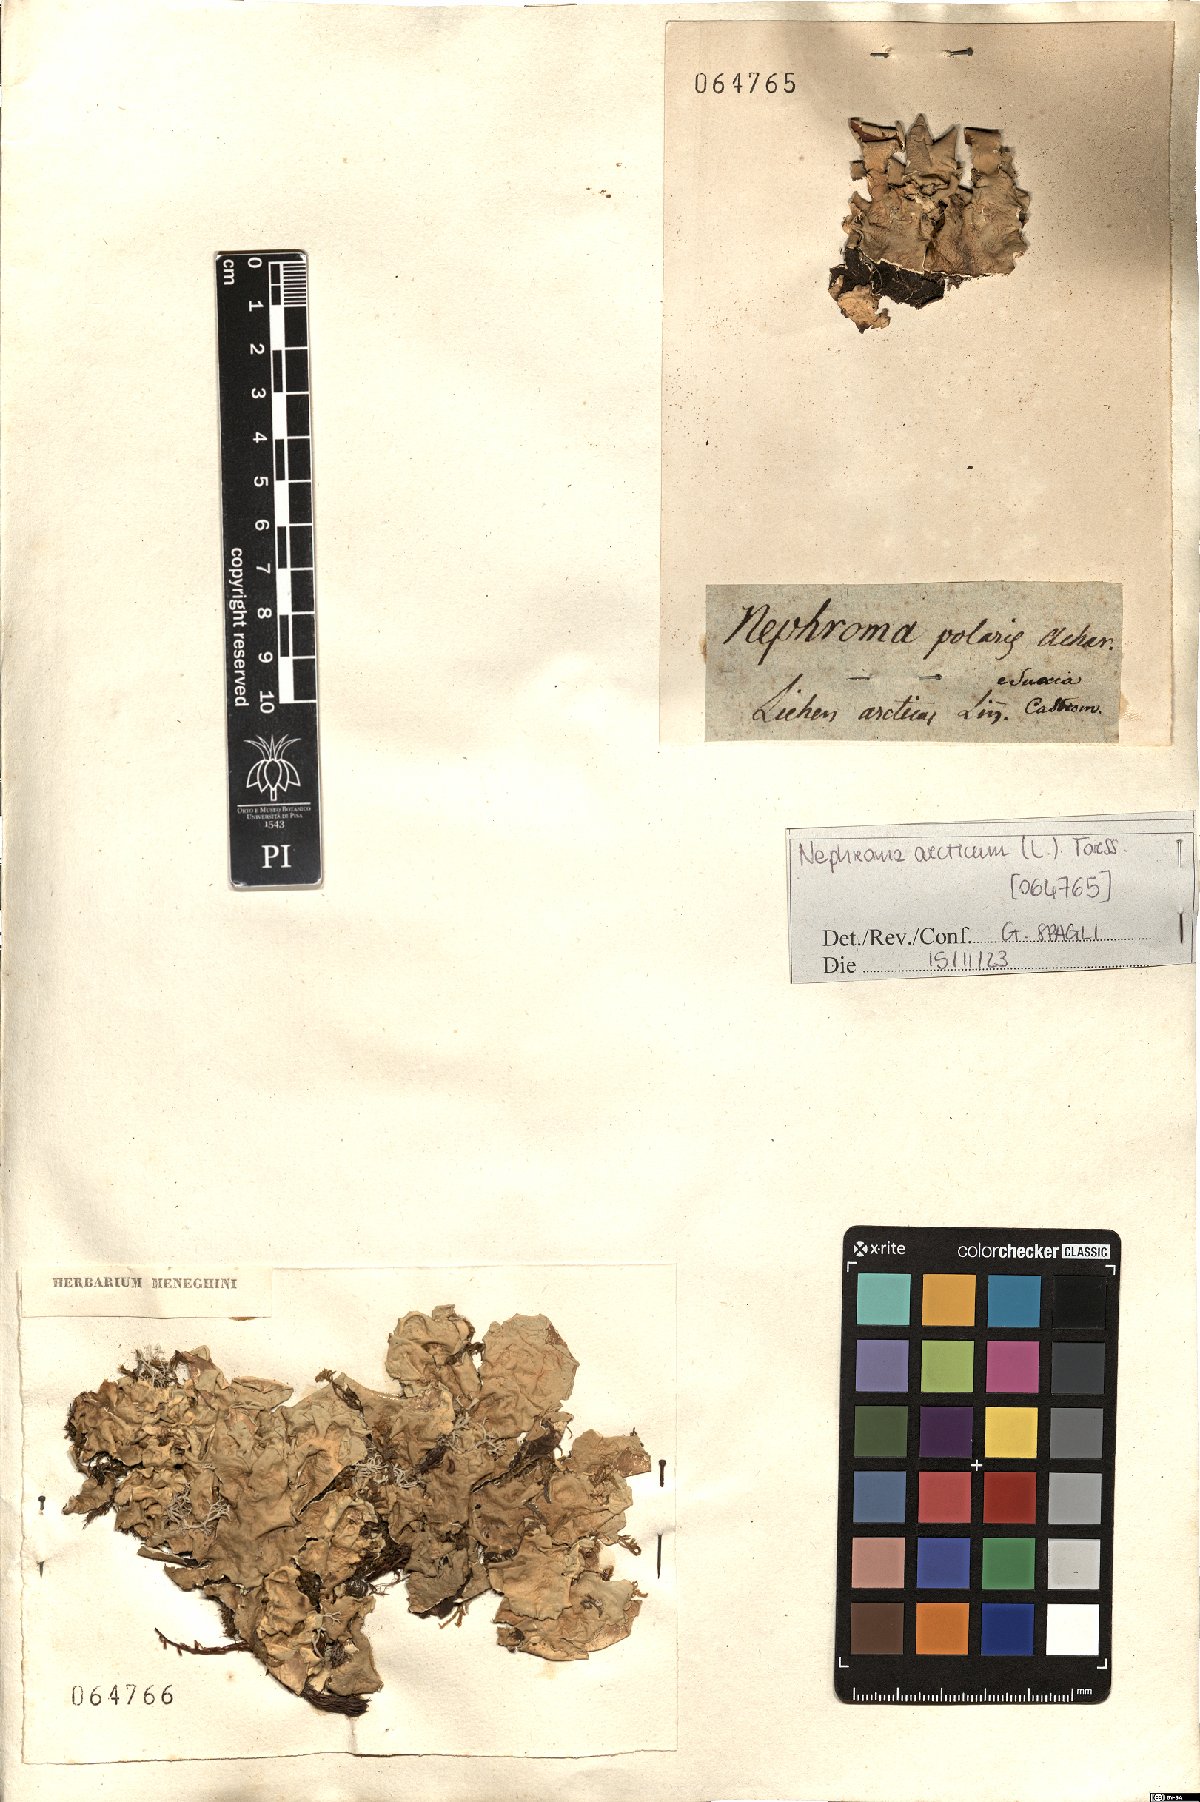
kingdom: Fungi
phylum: Ascomycota
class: Lecanoromycetes
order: Peltigerales
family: Nephromataceae
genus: Nephroma
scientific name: Nephroma arcticum
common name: Arctic kidney-lichen
